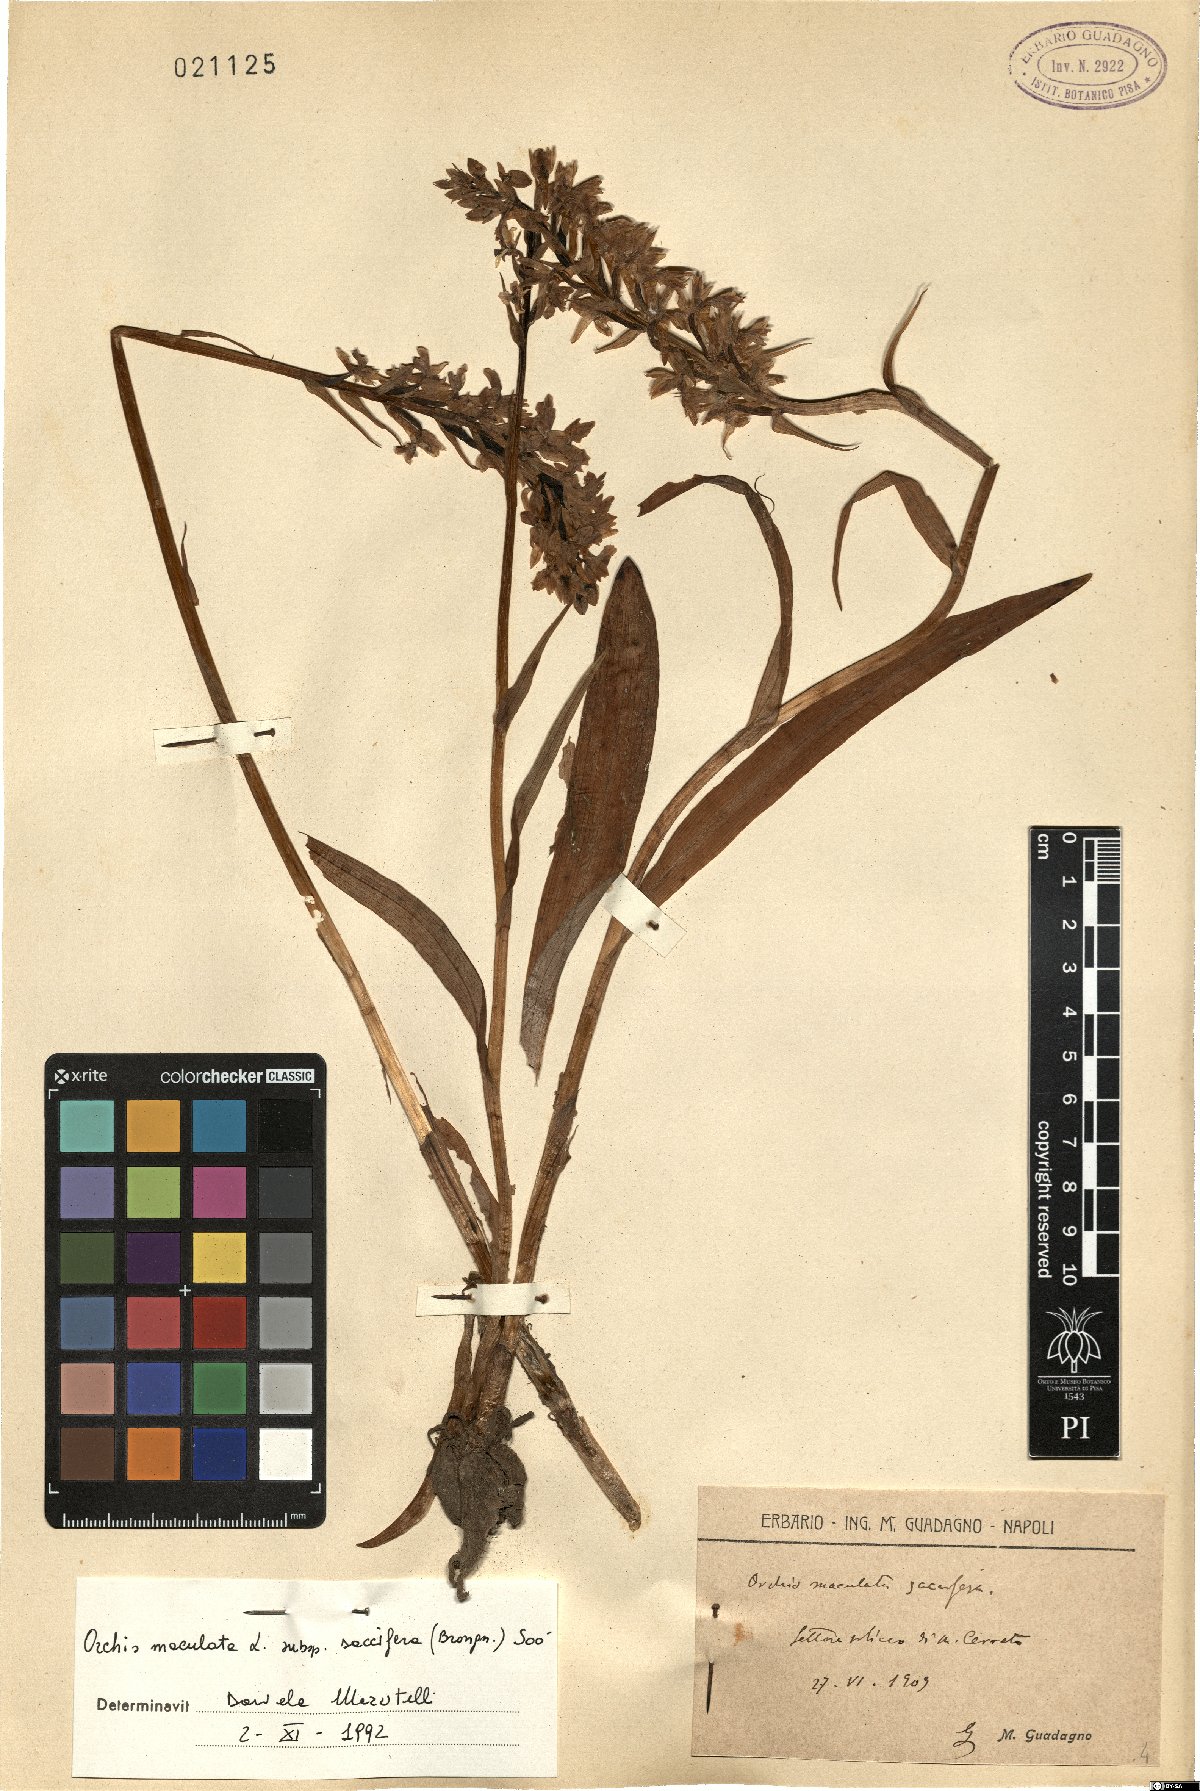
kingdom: Plantae
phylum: Tracheophyta
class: Liliopsida
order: Asparagales
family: Orchidaceae
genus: Dactylorhiza
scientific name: Dactylorhiza maculata
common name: Heath spotted-orchid
